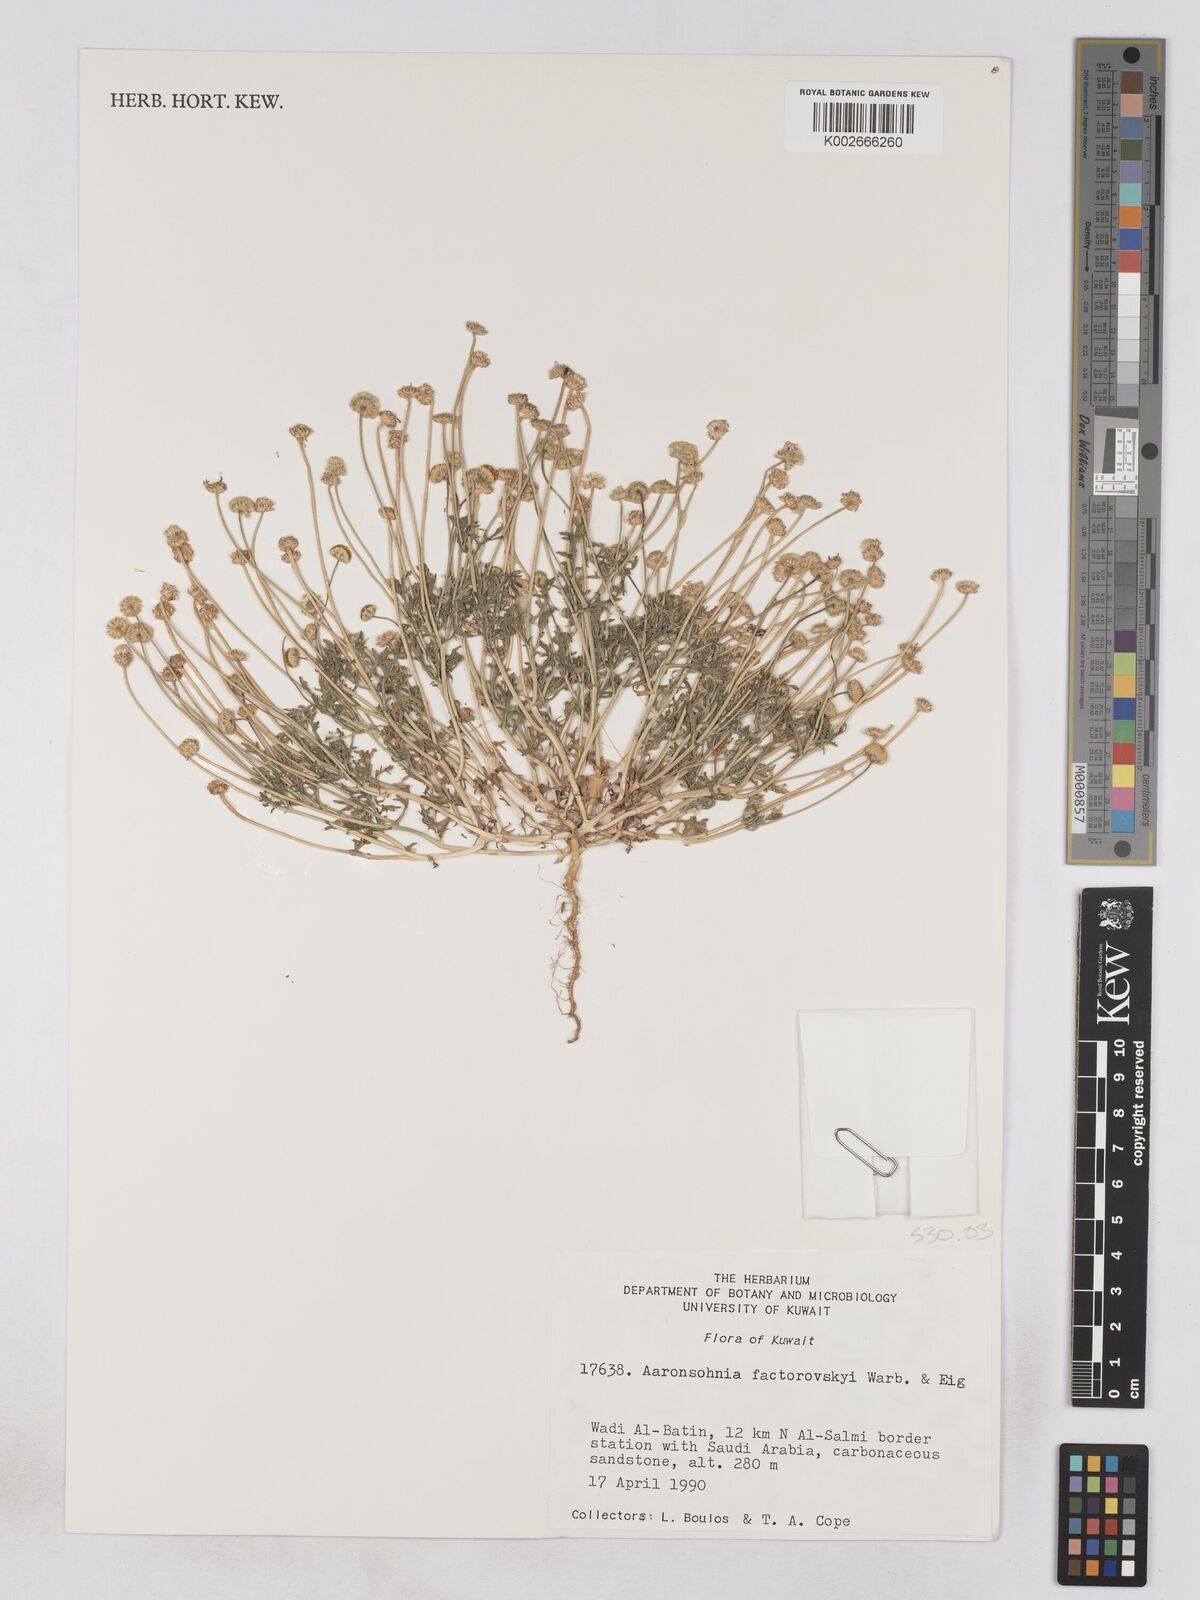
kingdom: Plantae
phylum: Tracheophyta
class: Magnoliopsida
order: Asterales
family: Asteraceae
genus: Otoglyphis
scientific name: Otoglyphis factorovskyi
